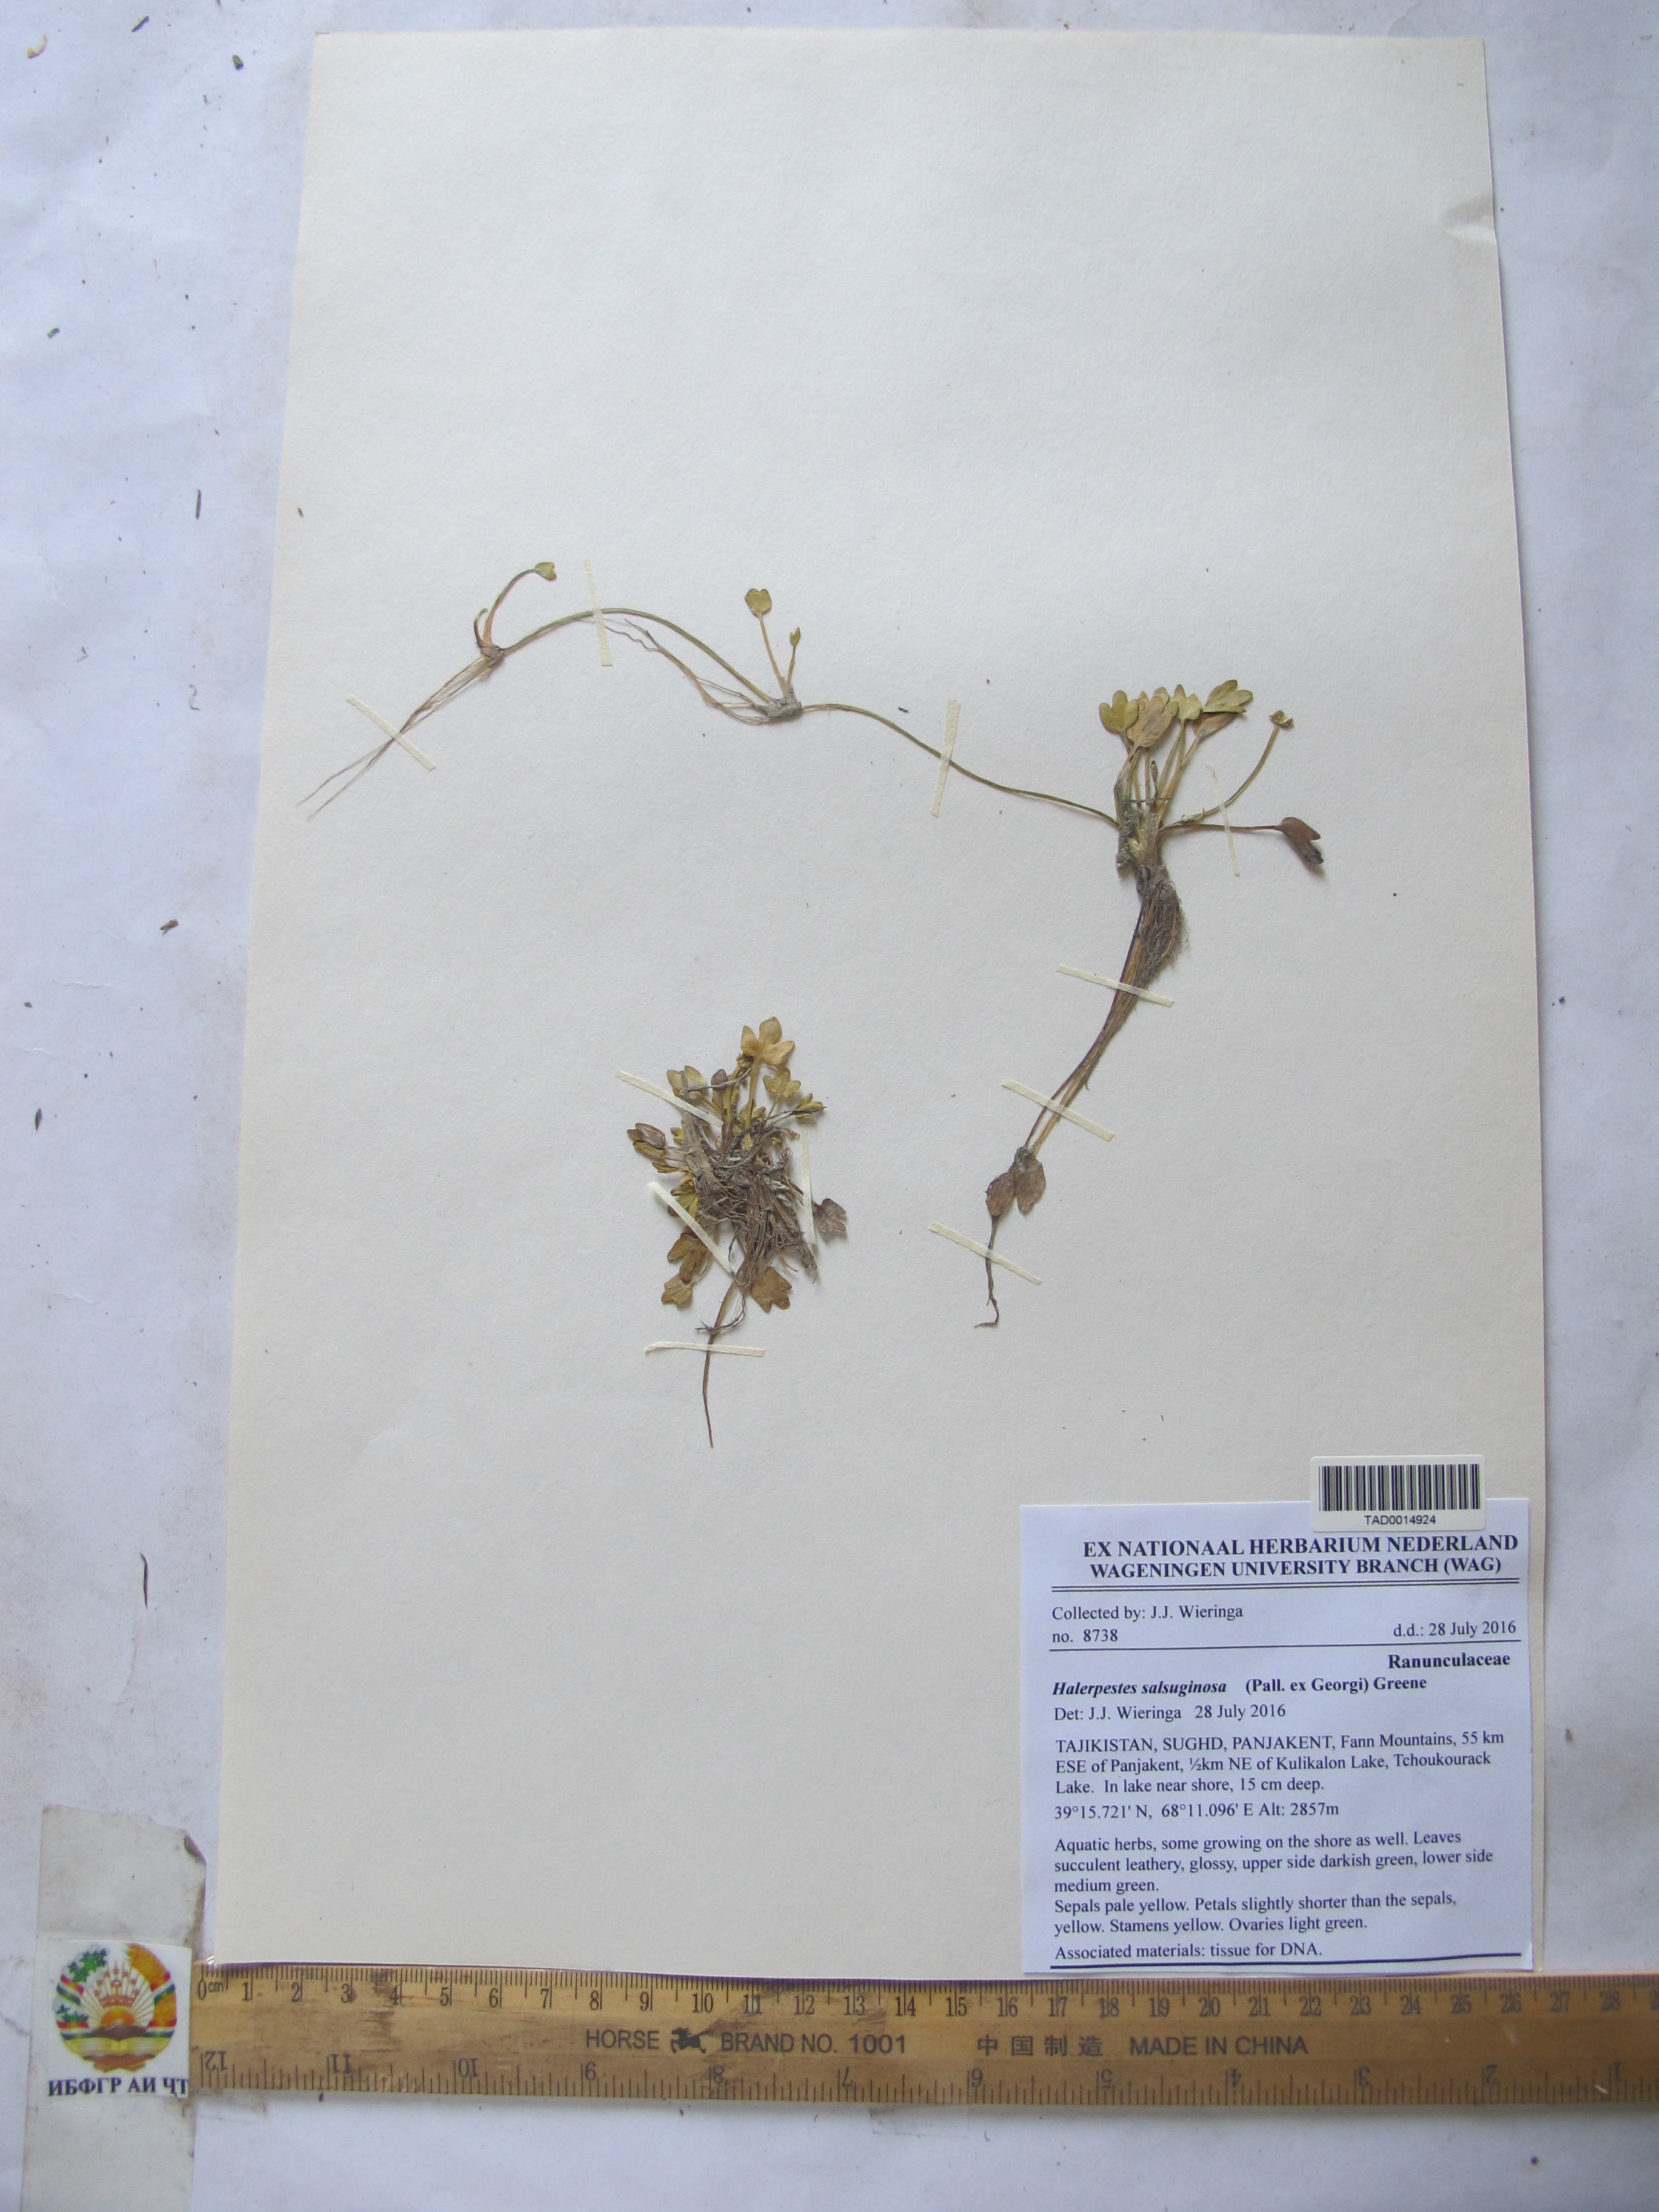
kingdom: Plantae
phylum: Tracheophyta
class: Magnoliopsida
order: Ranunculales
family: Ranunculaceae
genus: Halerpestes
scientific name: Halerpestes sarmentosus
